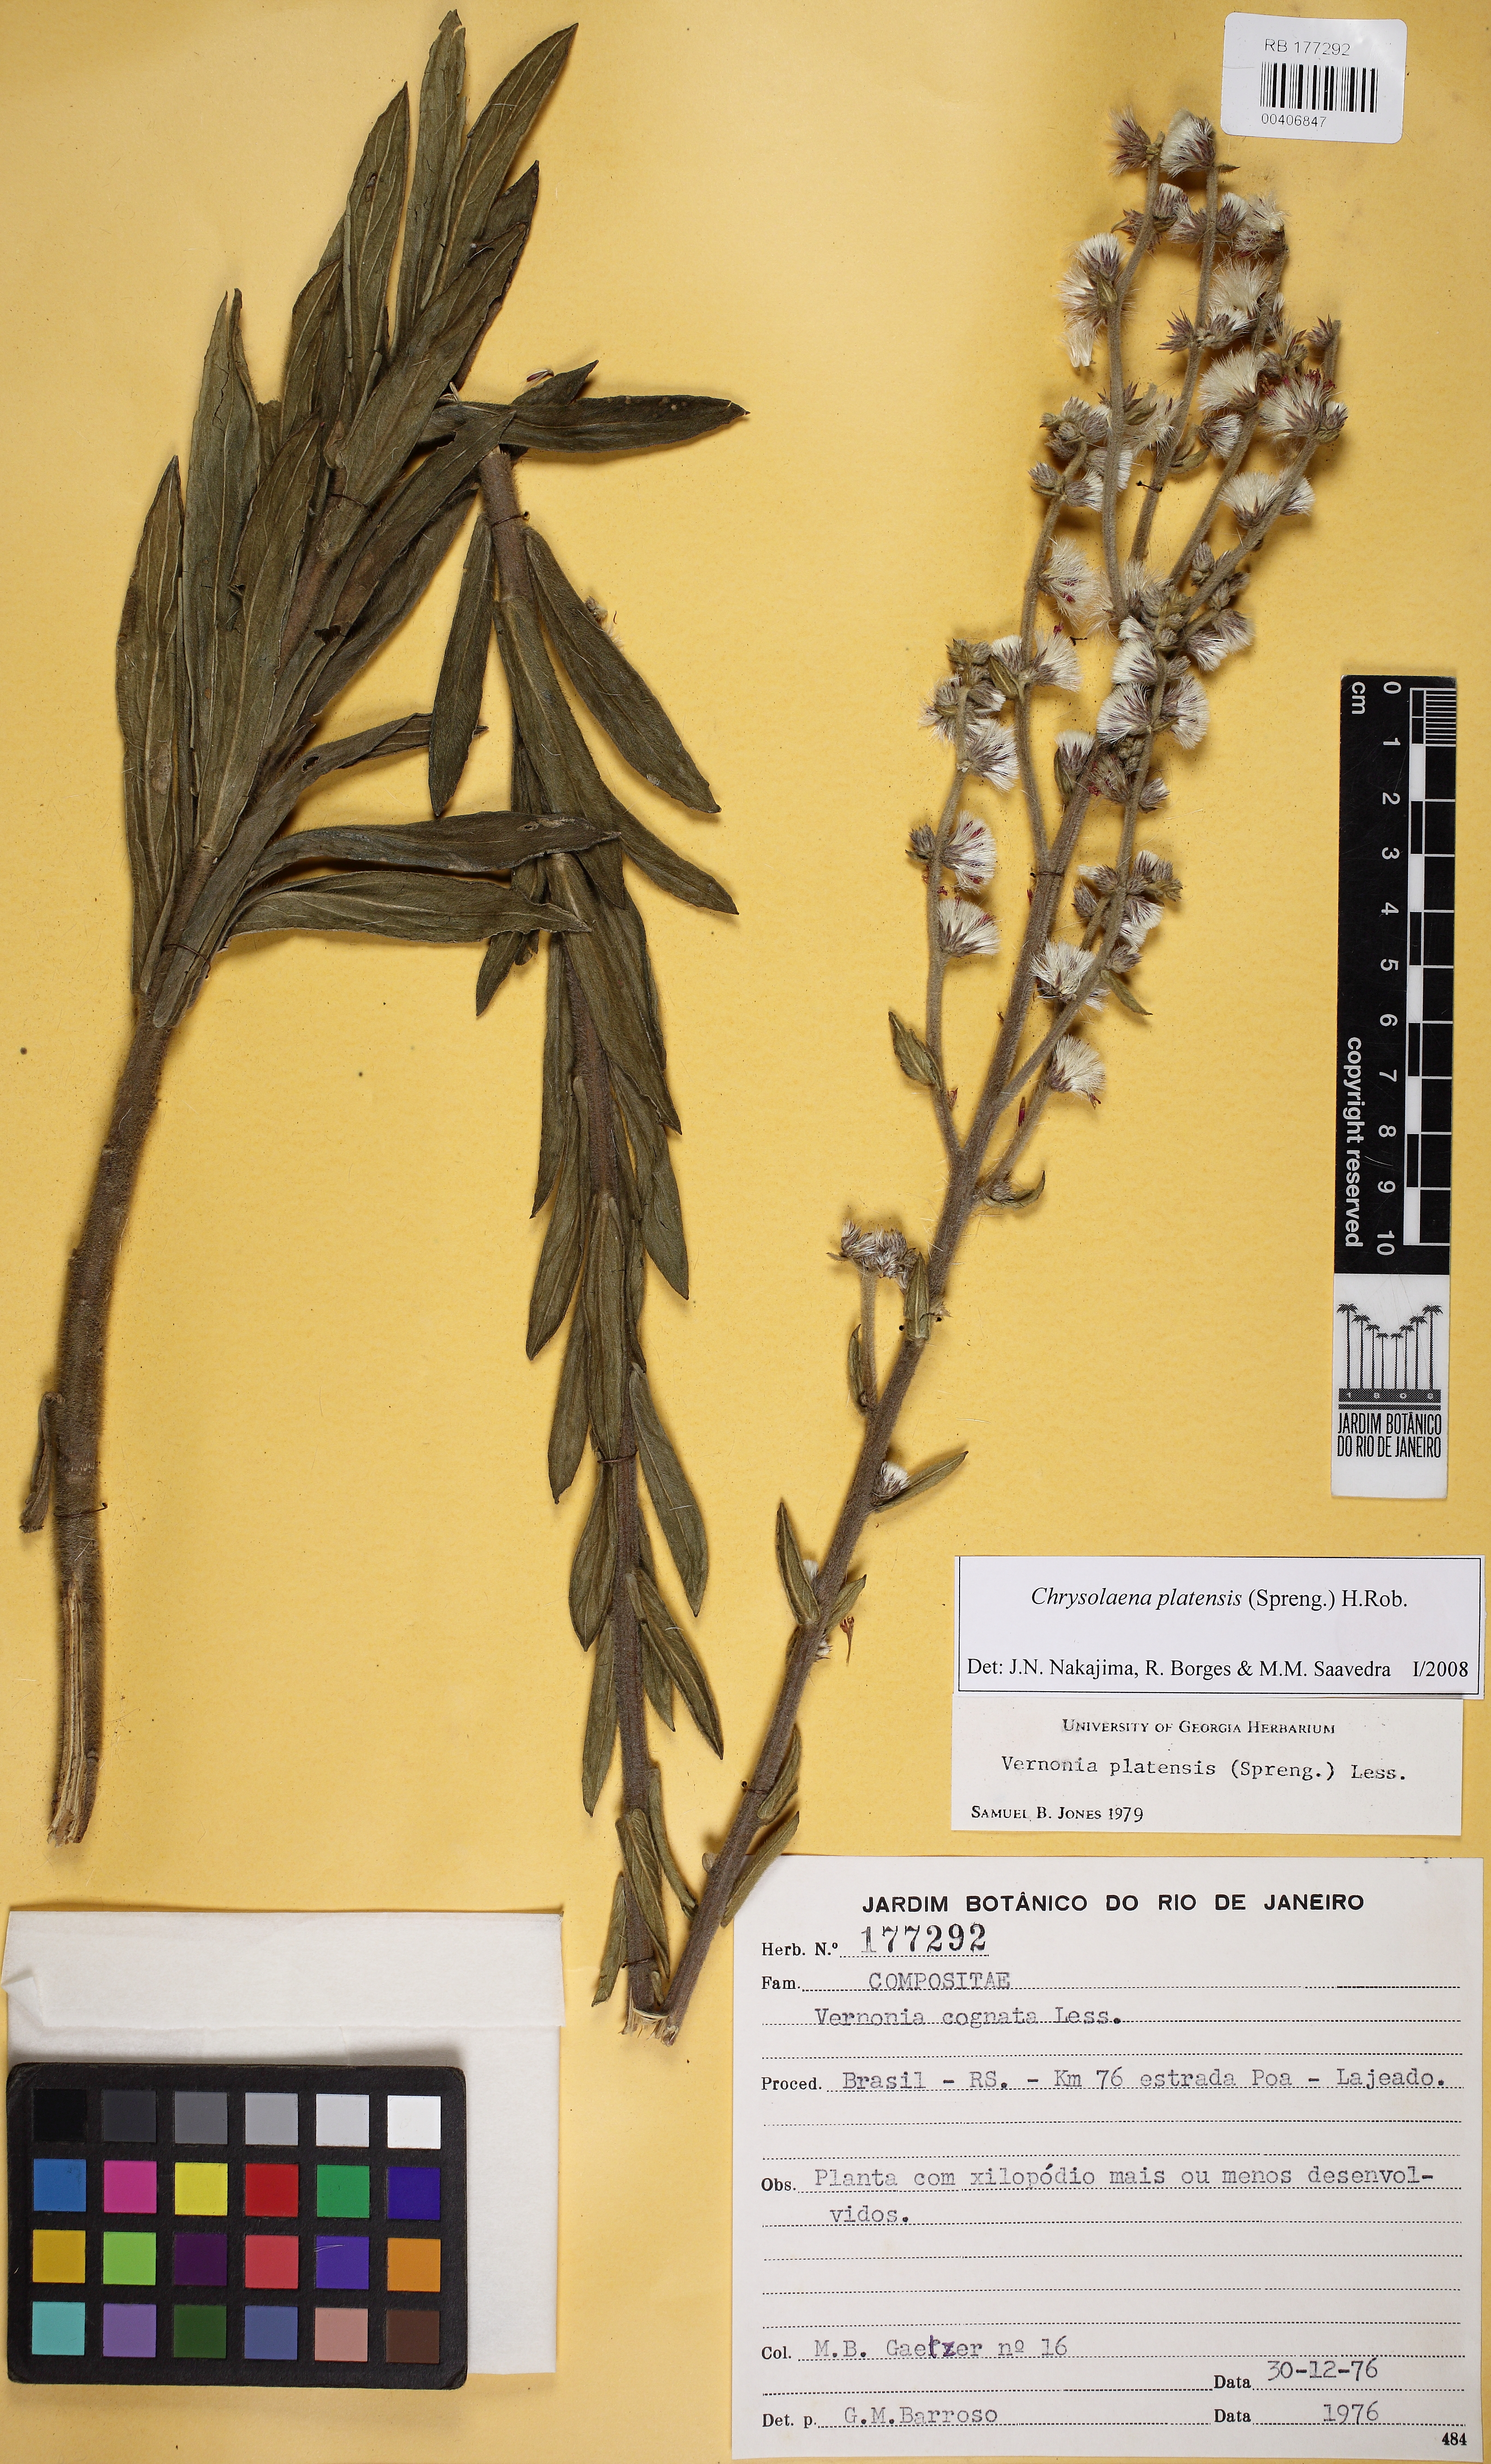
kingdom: Plantae
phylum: Tracheophyta
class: Magnoliopsida
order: Asterales
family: Asteraceae
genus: Chrysolaena
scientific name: Chrysolaena platensis
